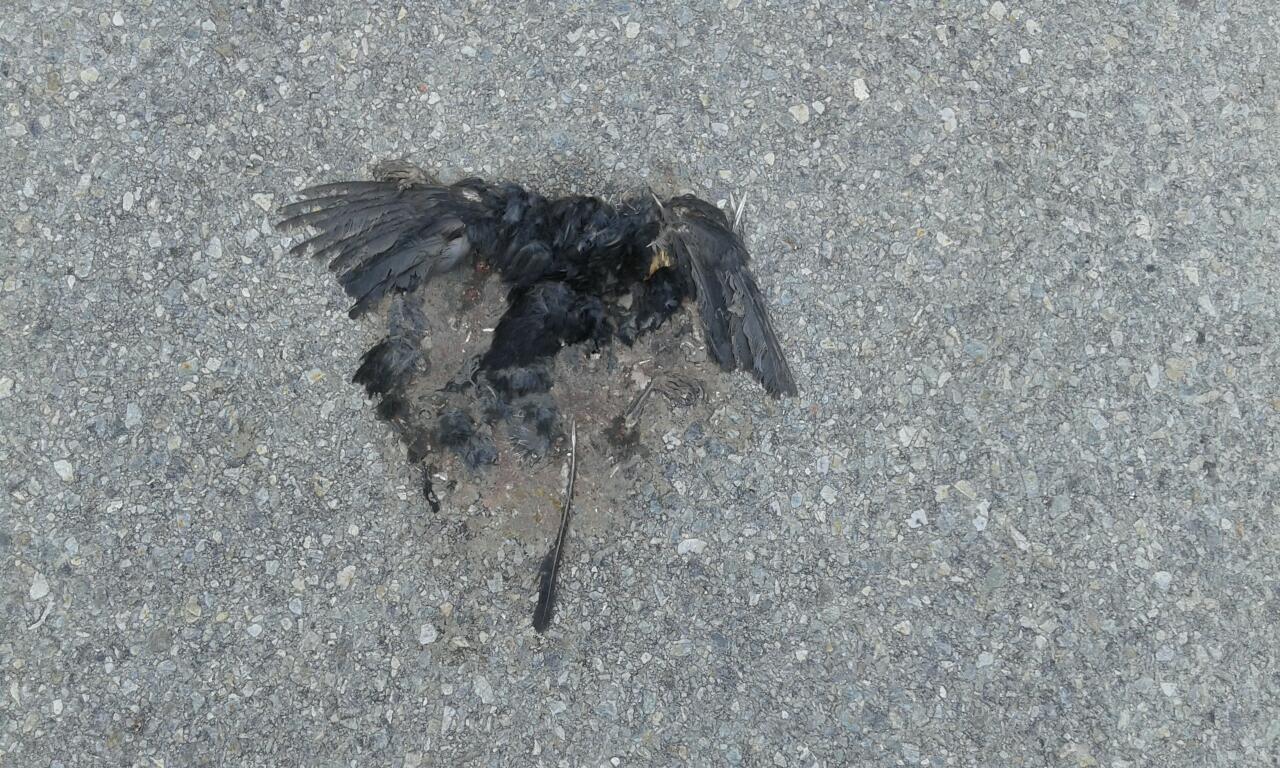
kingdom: Animalia
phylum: Chordata
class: Aves
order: Passeriformes
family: Turdidae
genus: Turdus
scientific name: Turdus merula
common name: Common blackbird
